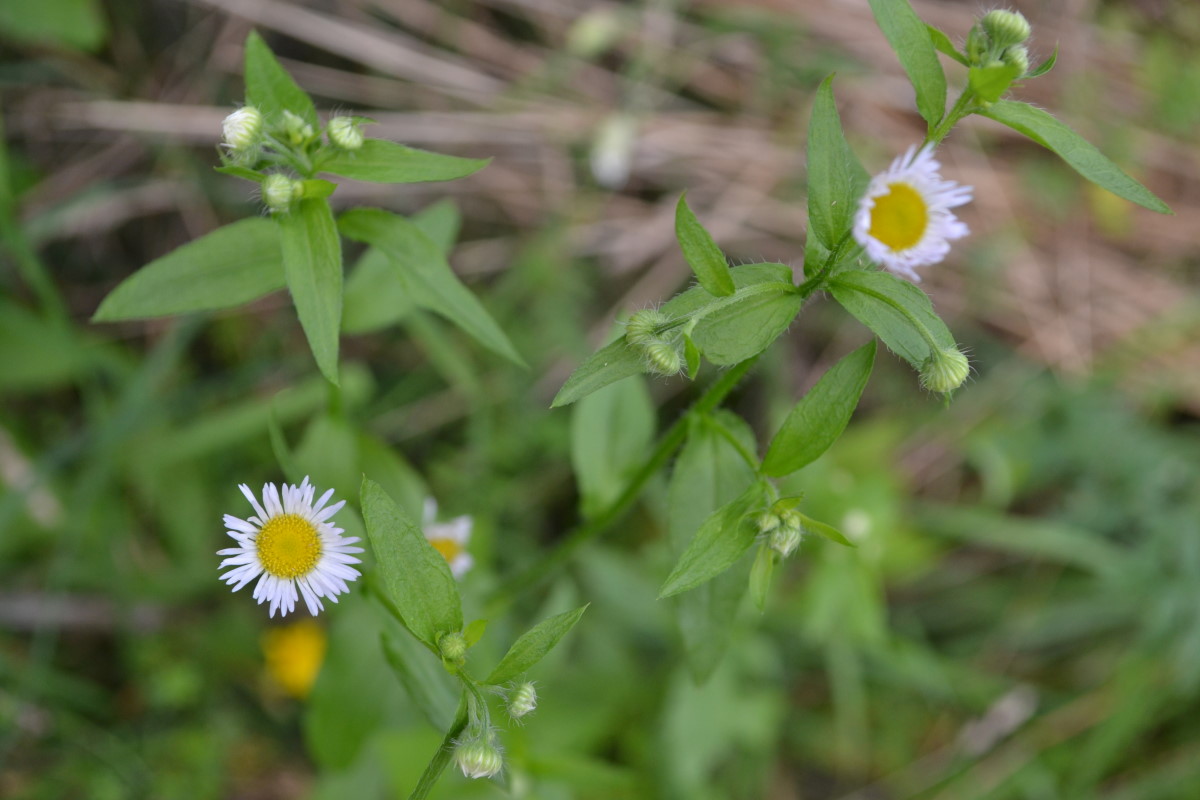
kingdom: Plantae
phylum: Tracheophyta
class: Magnoliopsida
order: Asterales
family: Asteraceae
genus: Erigeron
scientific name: Erigeron annuus
